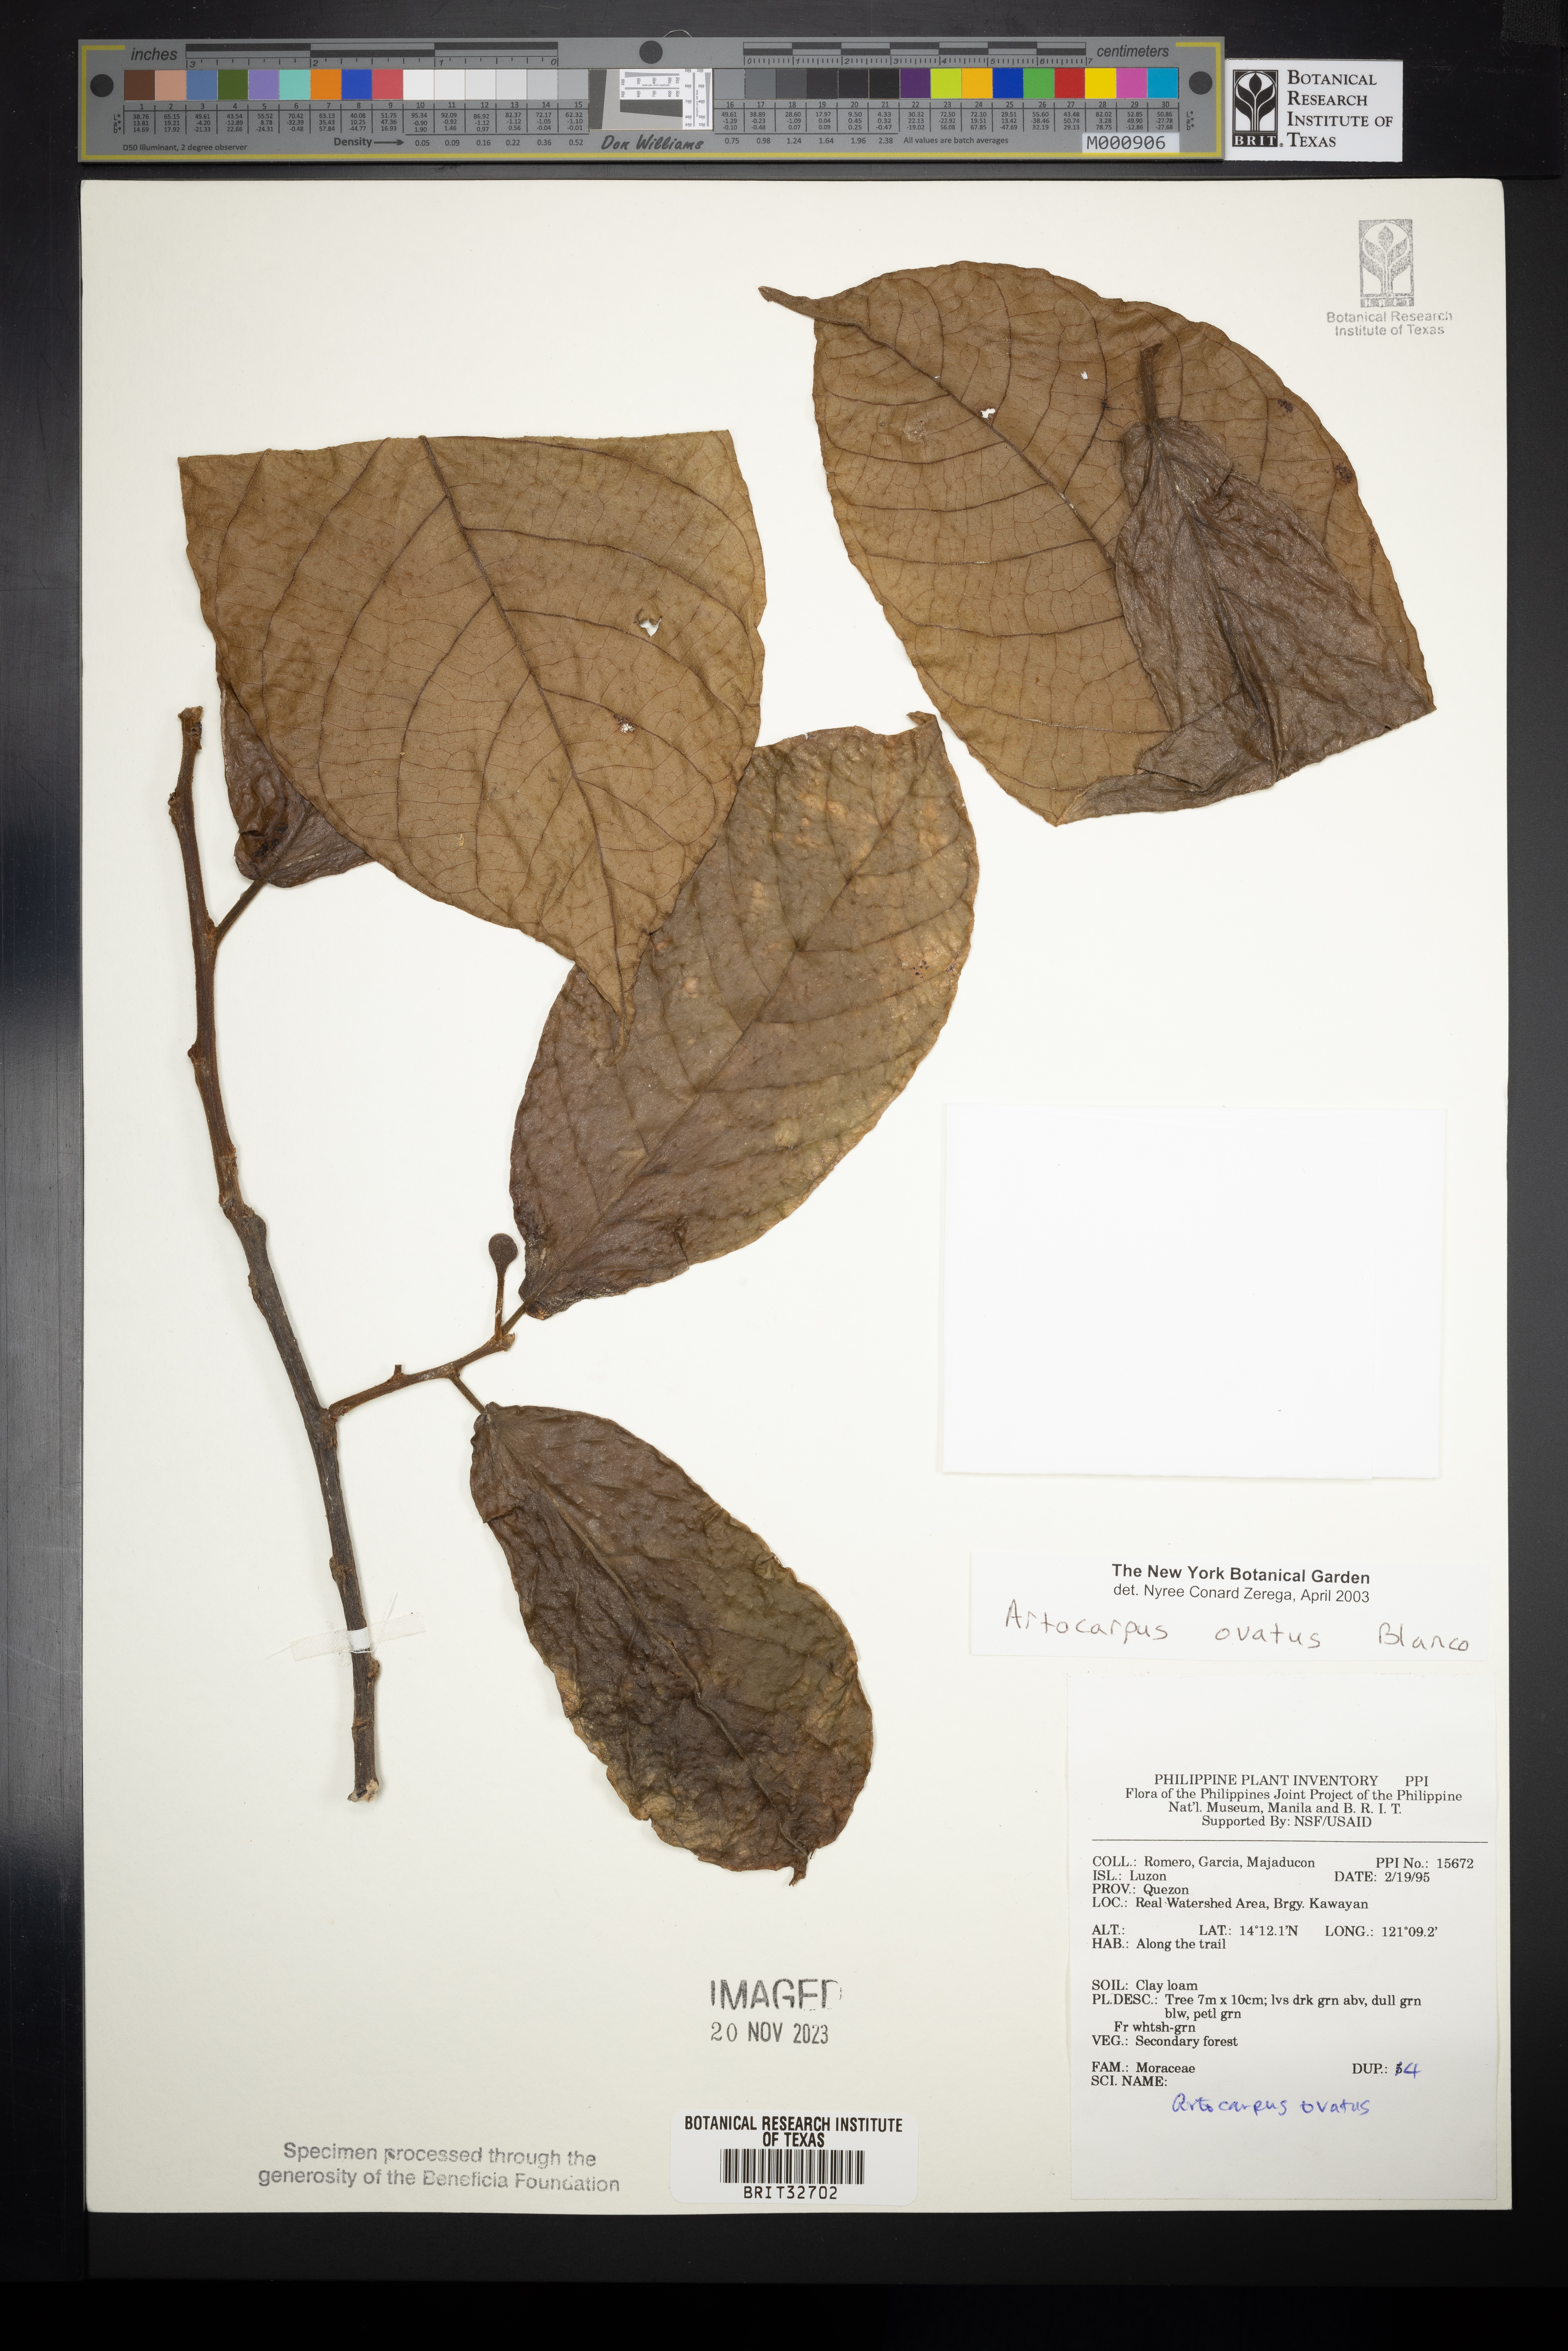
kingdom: Plantae
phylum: Tracheophyta
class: Magnoliopsida
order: Rosales
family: Moraceae
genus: Artocarpus
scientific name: Artocarpus lacucha
